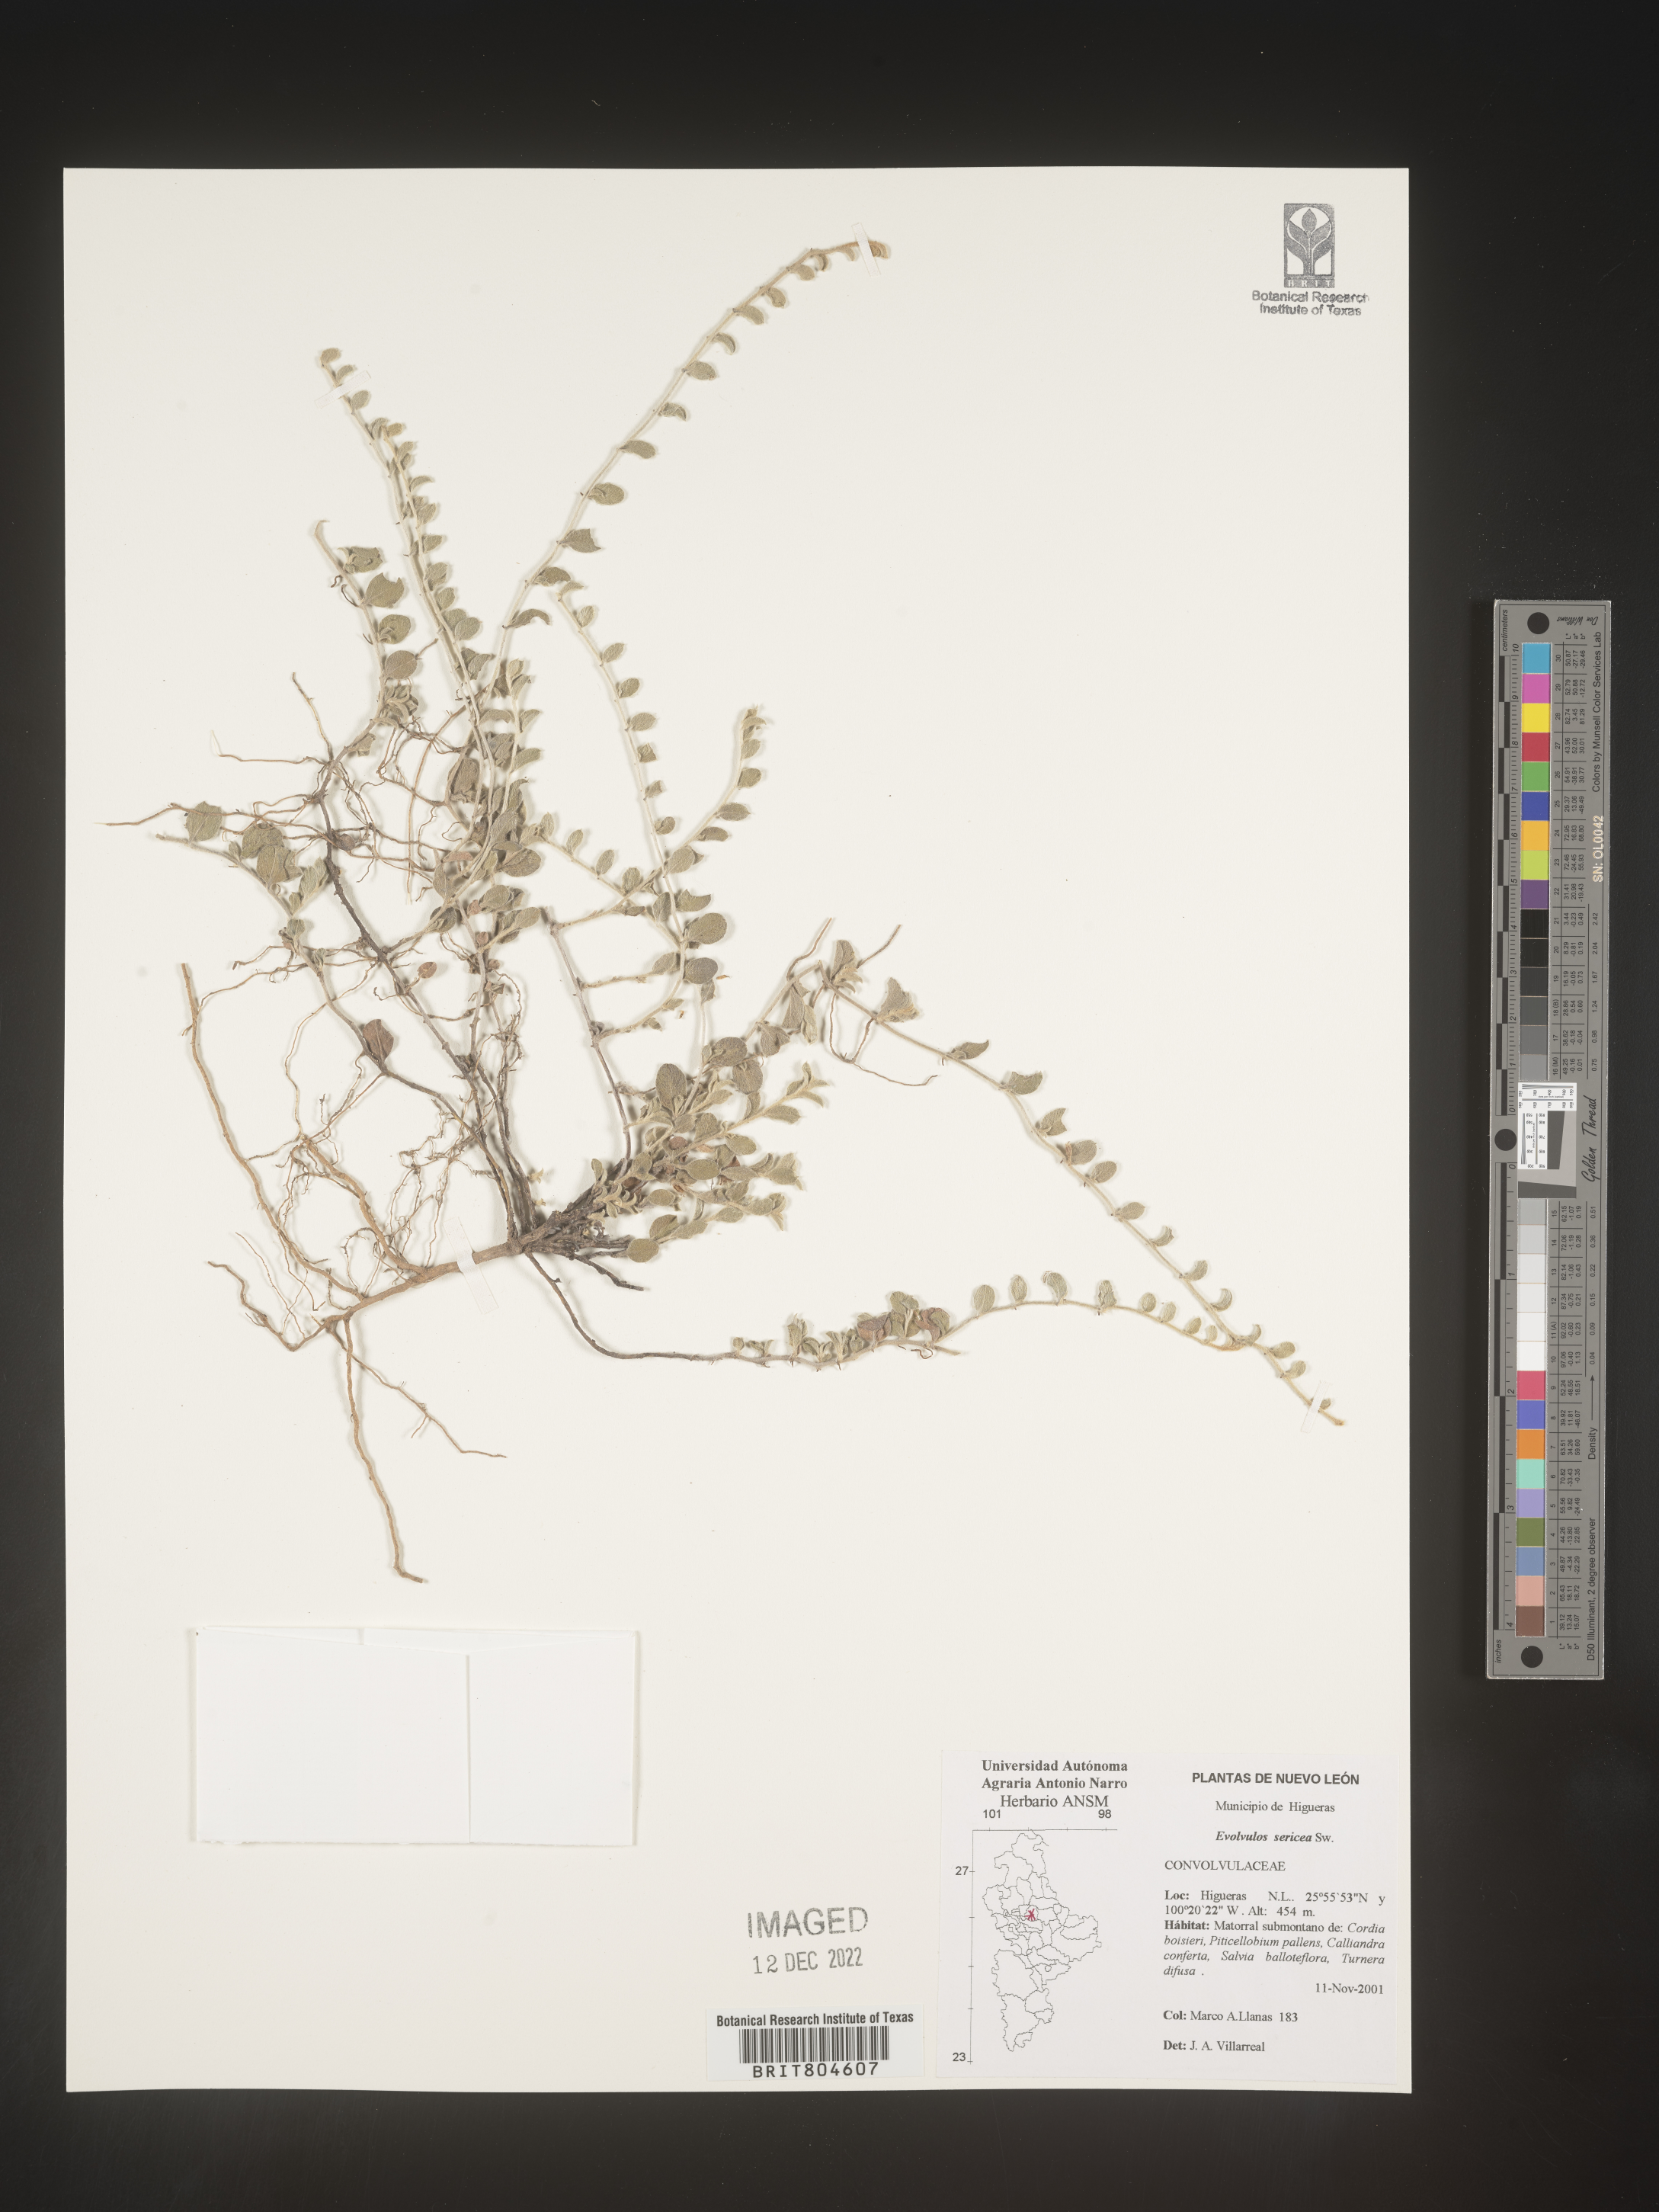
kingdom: Plantae
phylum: Tracheophyta
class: Magnoliopsida
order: Solanales
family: Convolvulaceae
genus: Evolvulus
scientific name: Evolvulus
